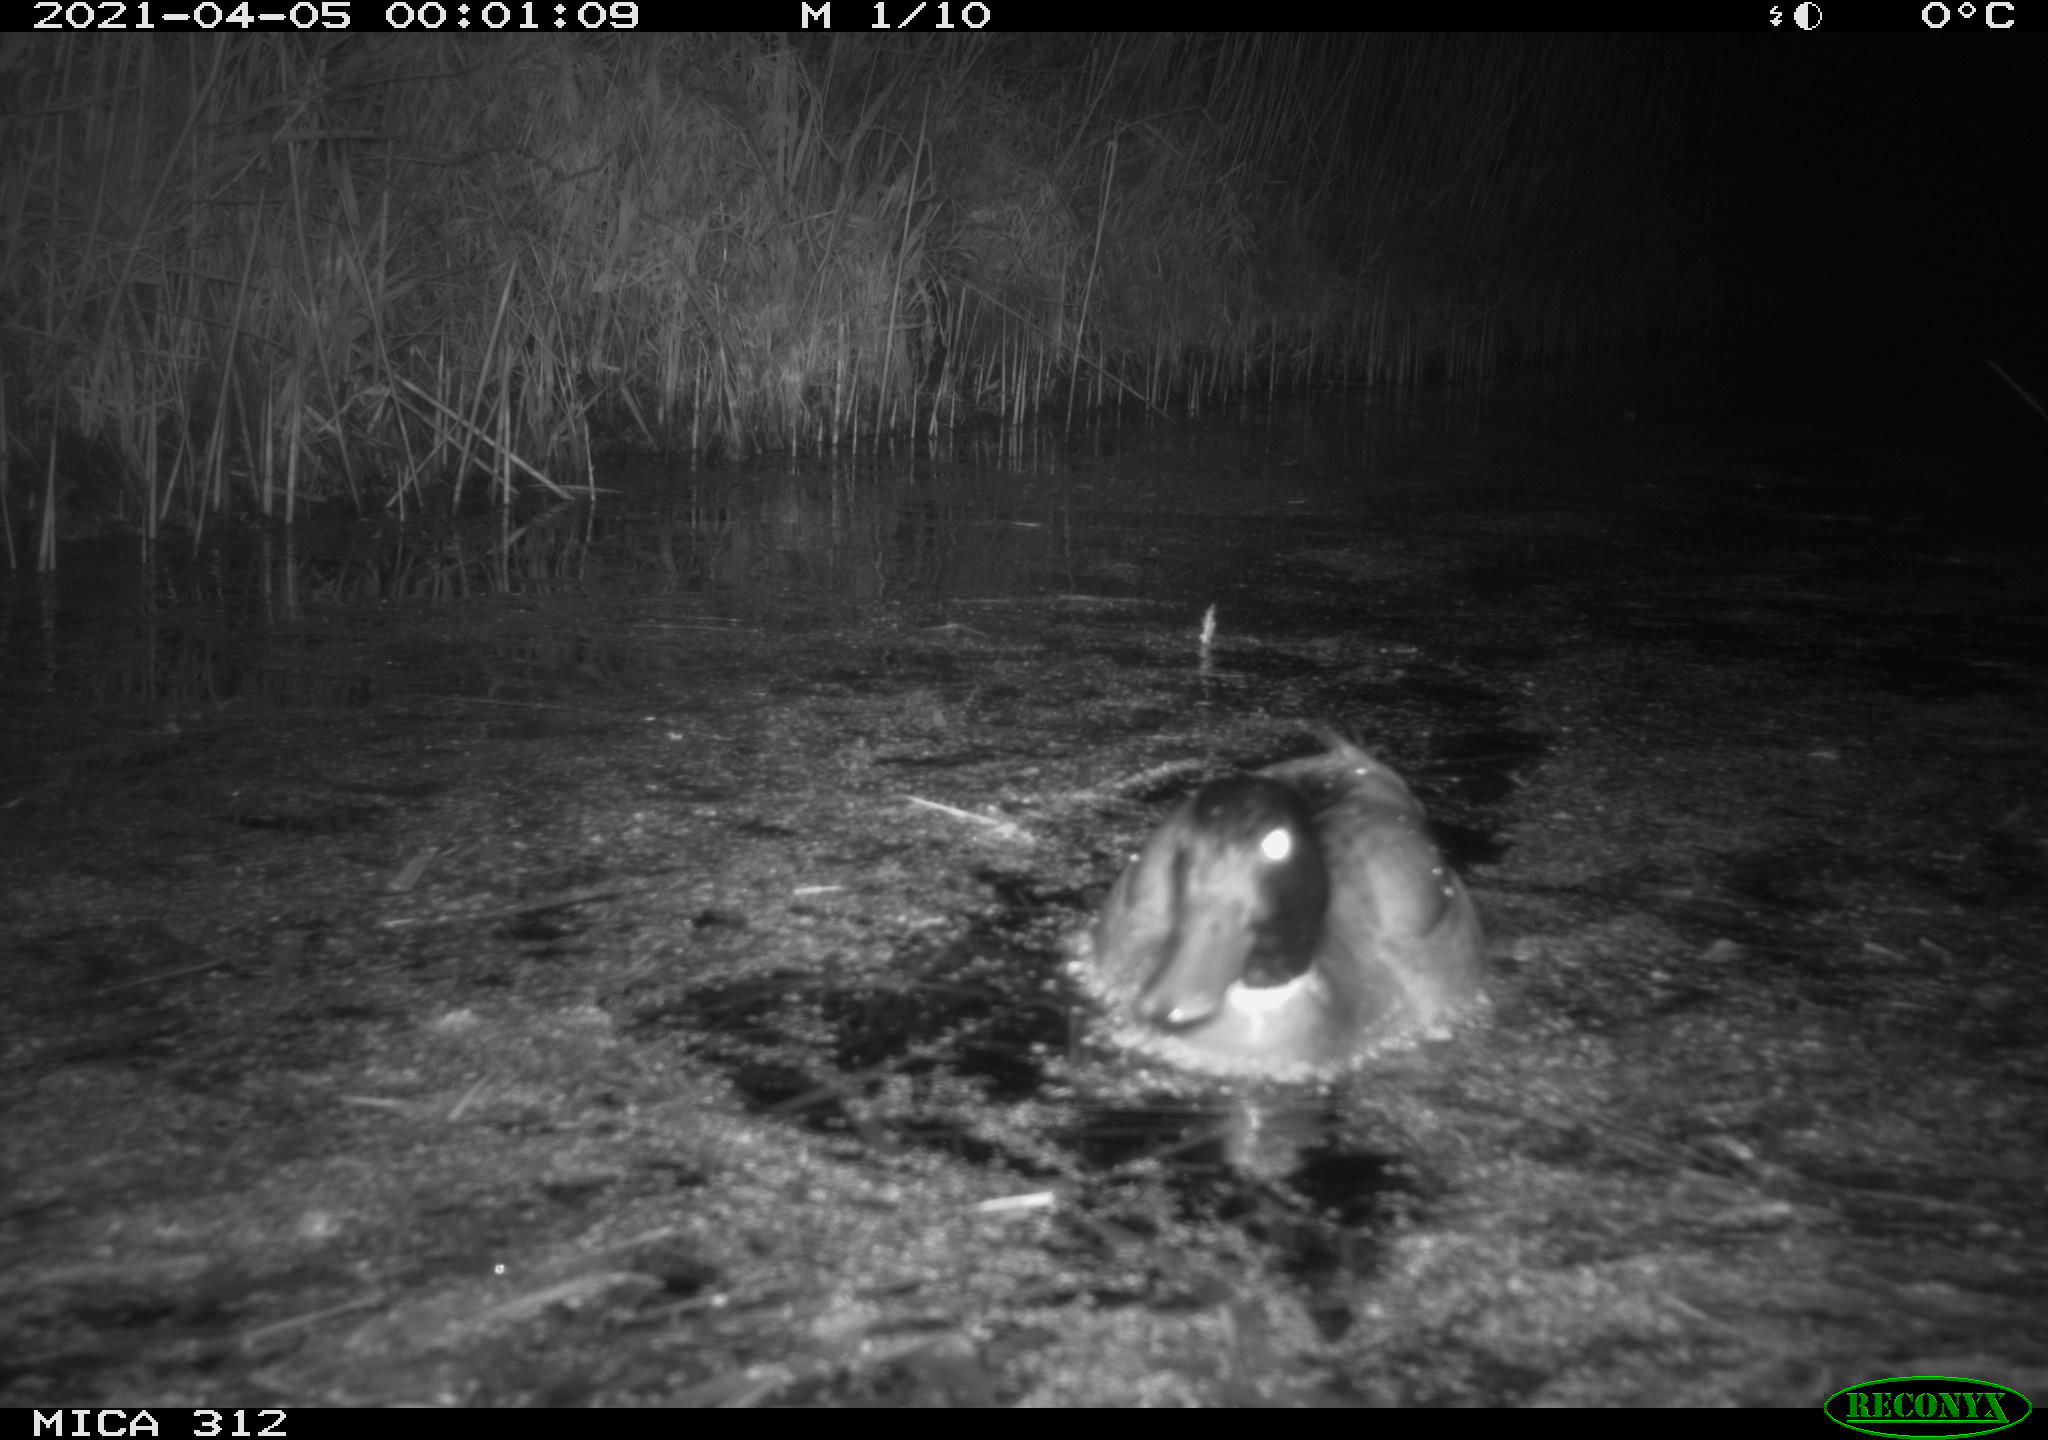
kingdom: Animalia
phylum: Chordata
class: Aves
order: Anseriformes
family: Anatidae
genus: Anas
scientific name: Anas platyrhynchos
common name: Mallard
